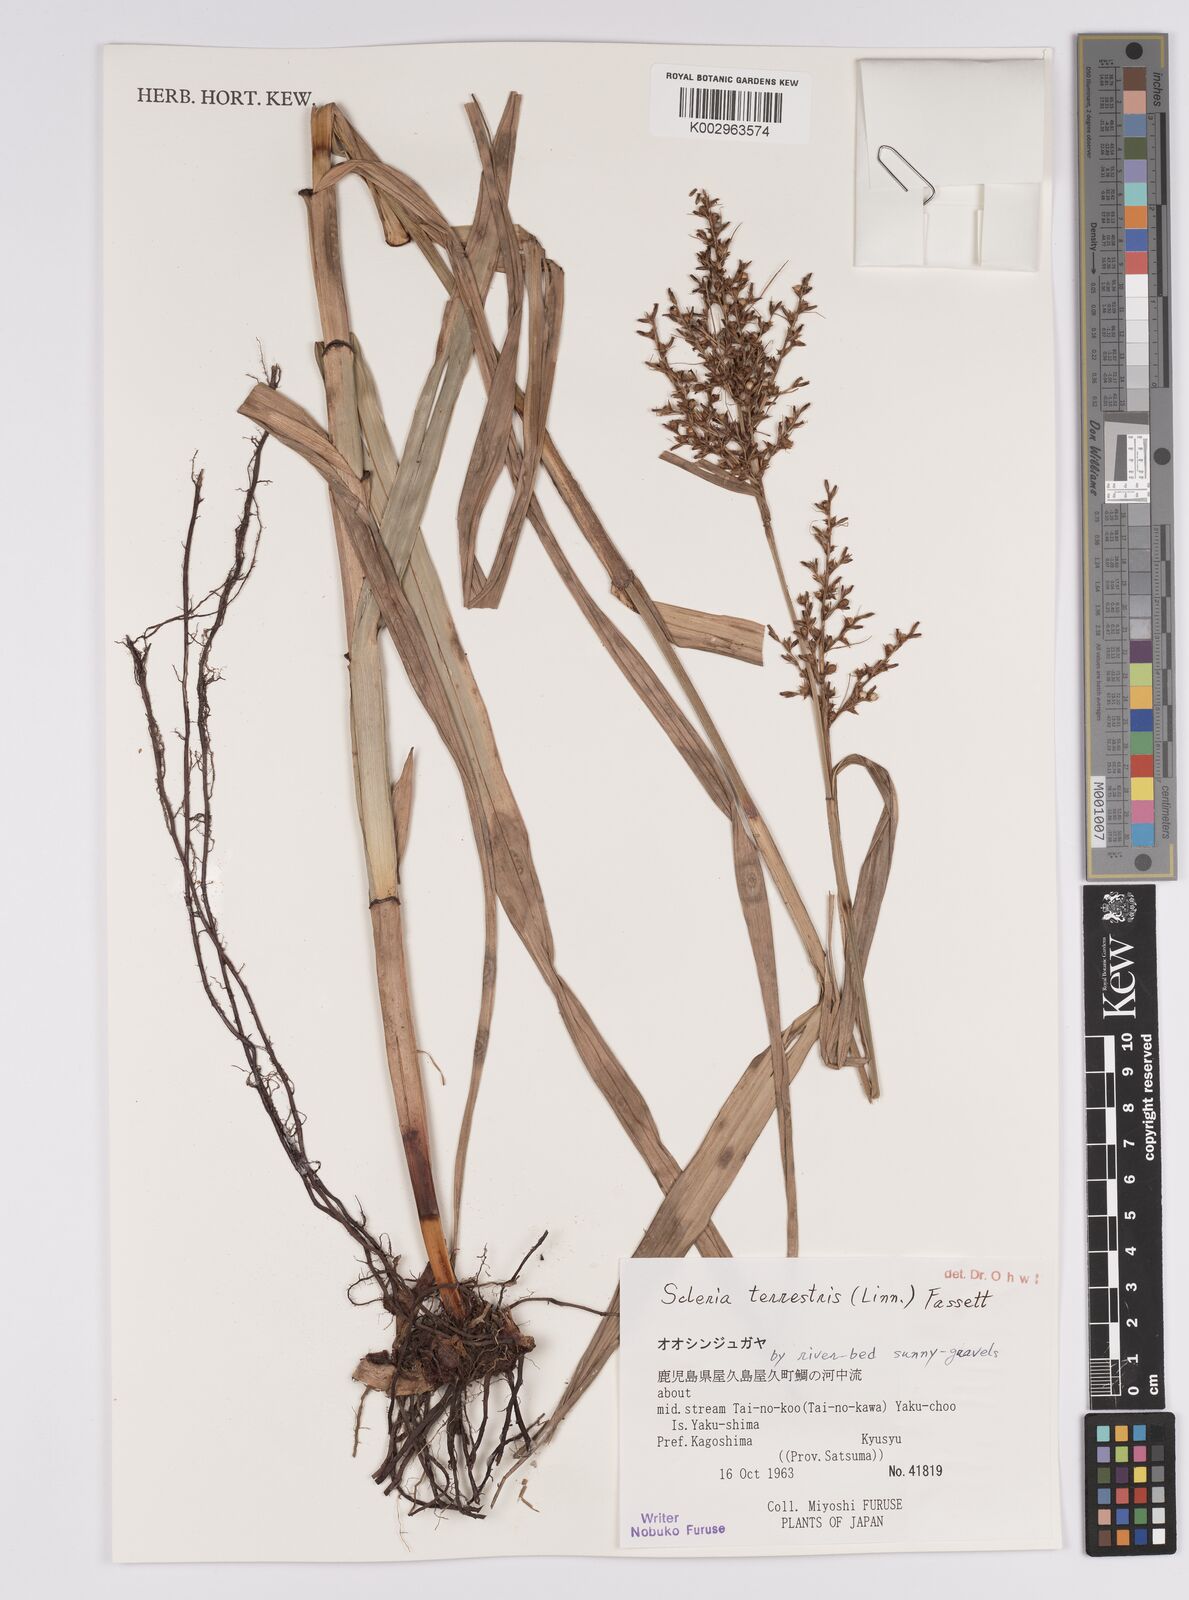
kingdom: Plantae
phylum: Tracheophyta
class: Liliopsida
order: Poales
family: Cyperaceae
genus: Scleria
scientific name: Scleria terrestris
